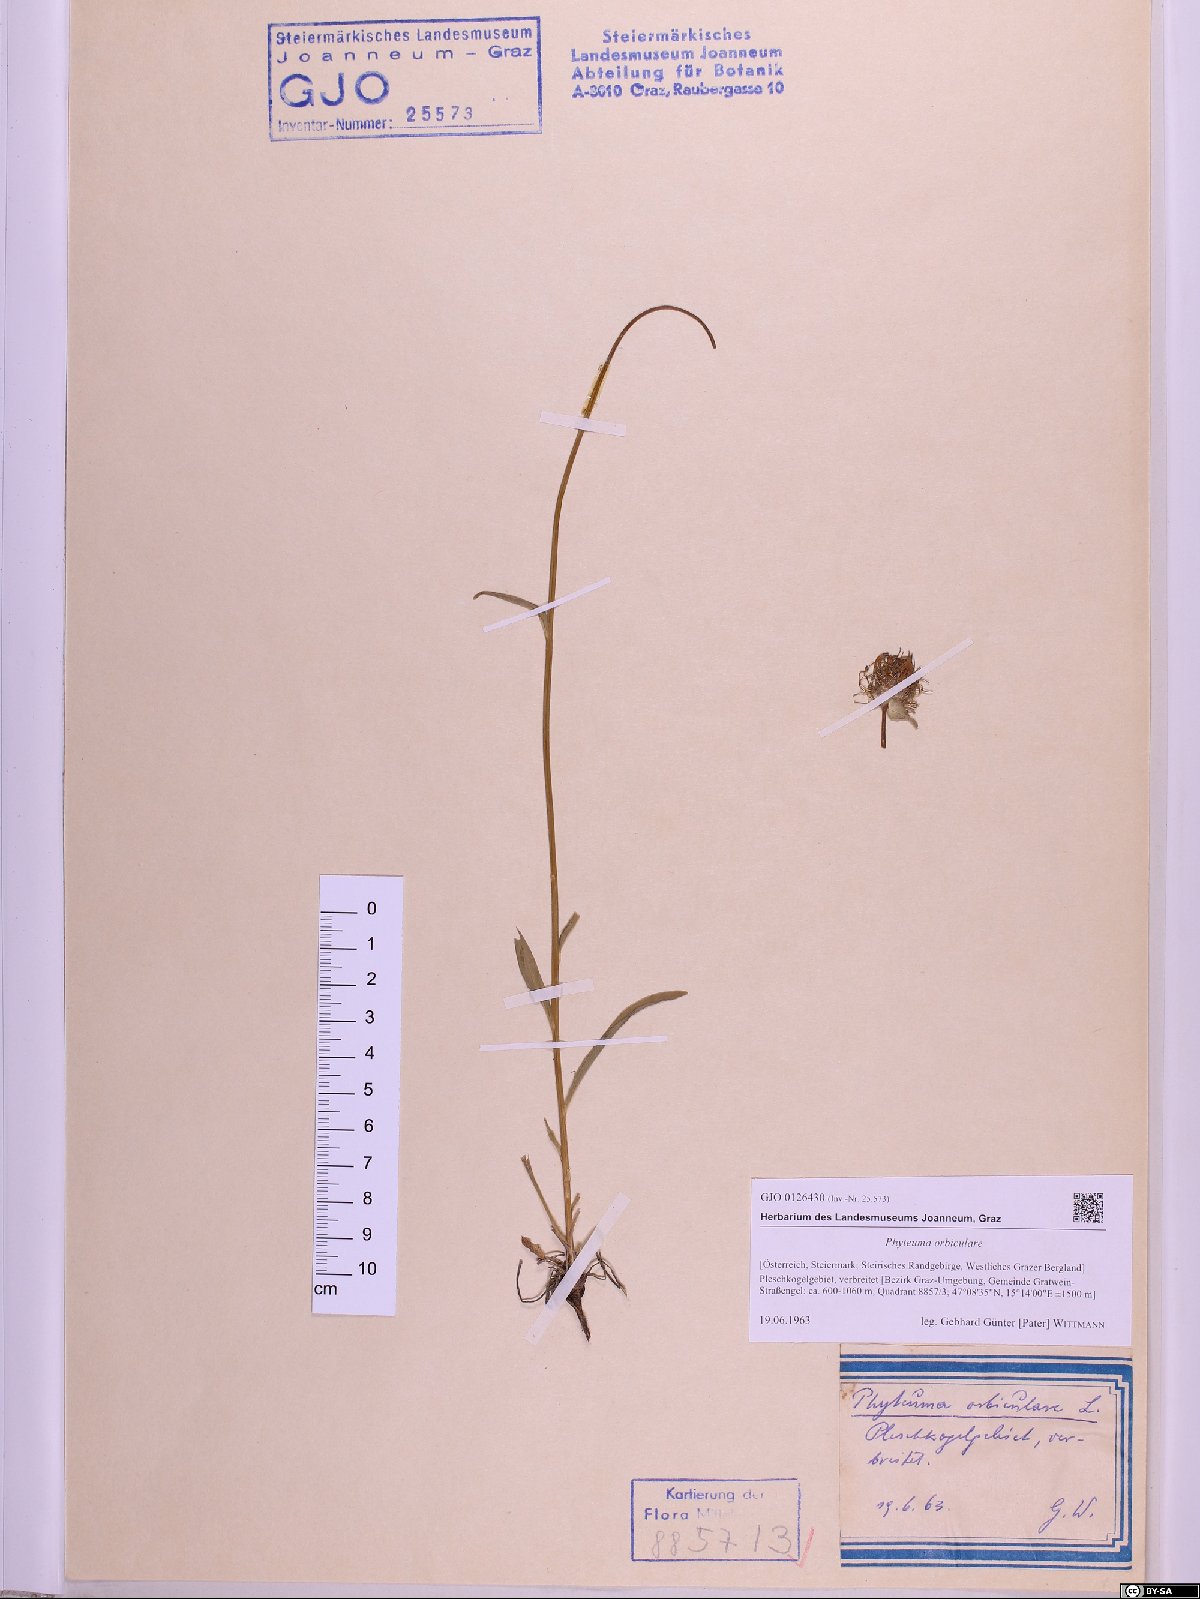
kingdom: Plantae
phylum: Tracheophyta
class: Magnoliopsida
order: Asterales
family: Campanulaceae
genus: Phyteuma
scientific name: Phyteuma orbiculare
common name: Round-headed rampion
